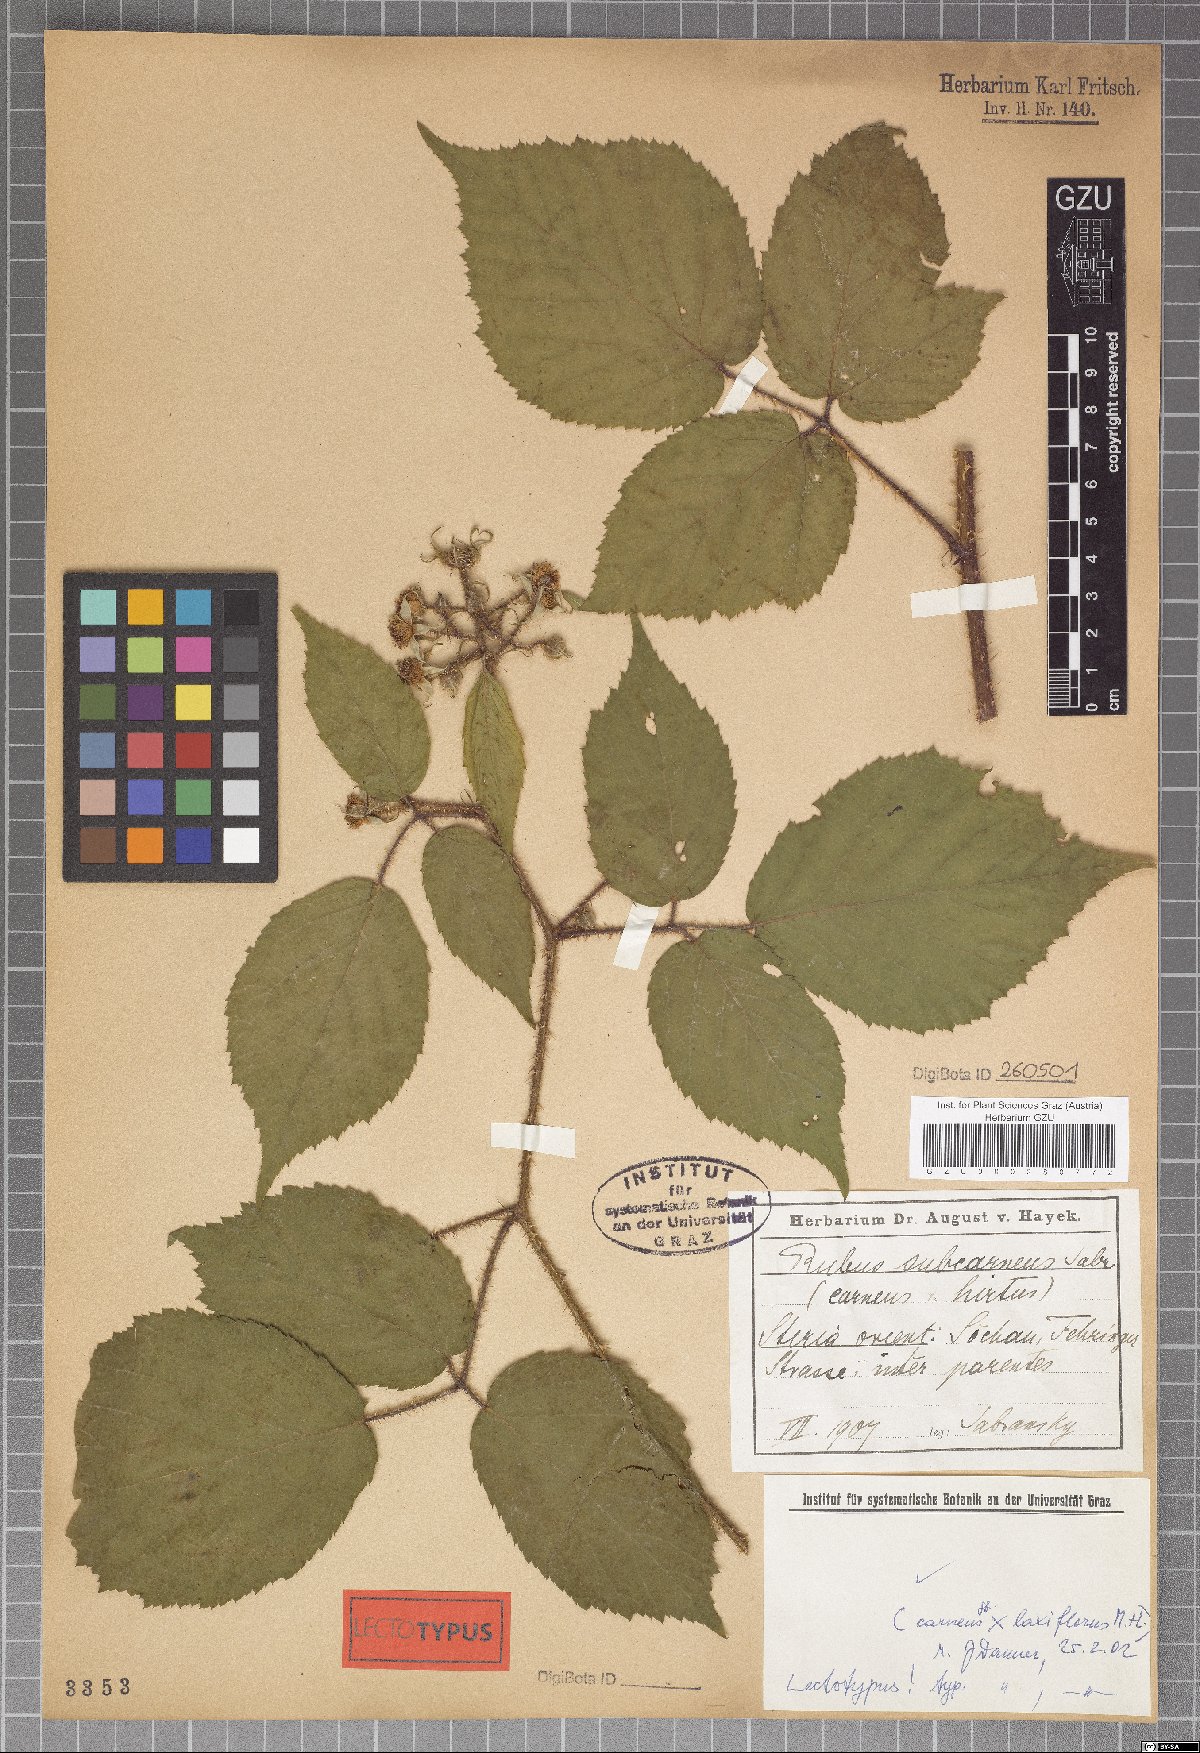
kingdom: Plantae
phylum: Tracheophyta
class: Magnoliopsida
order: Rosales
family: Rosaceae
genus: Rubus
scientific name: Rubus subcarneus
